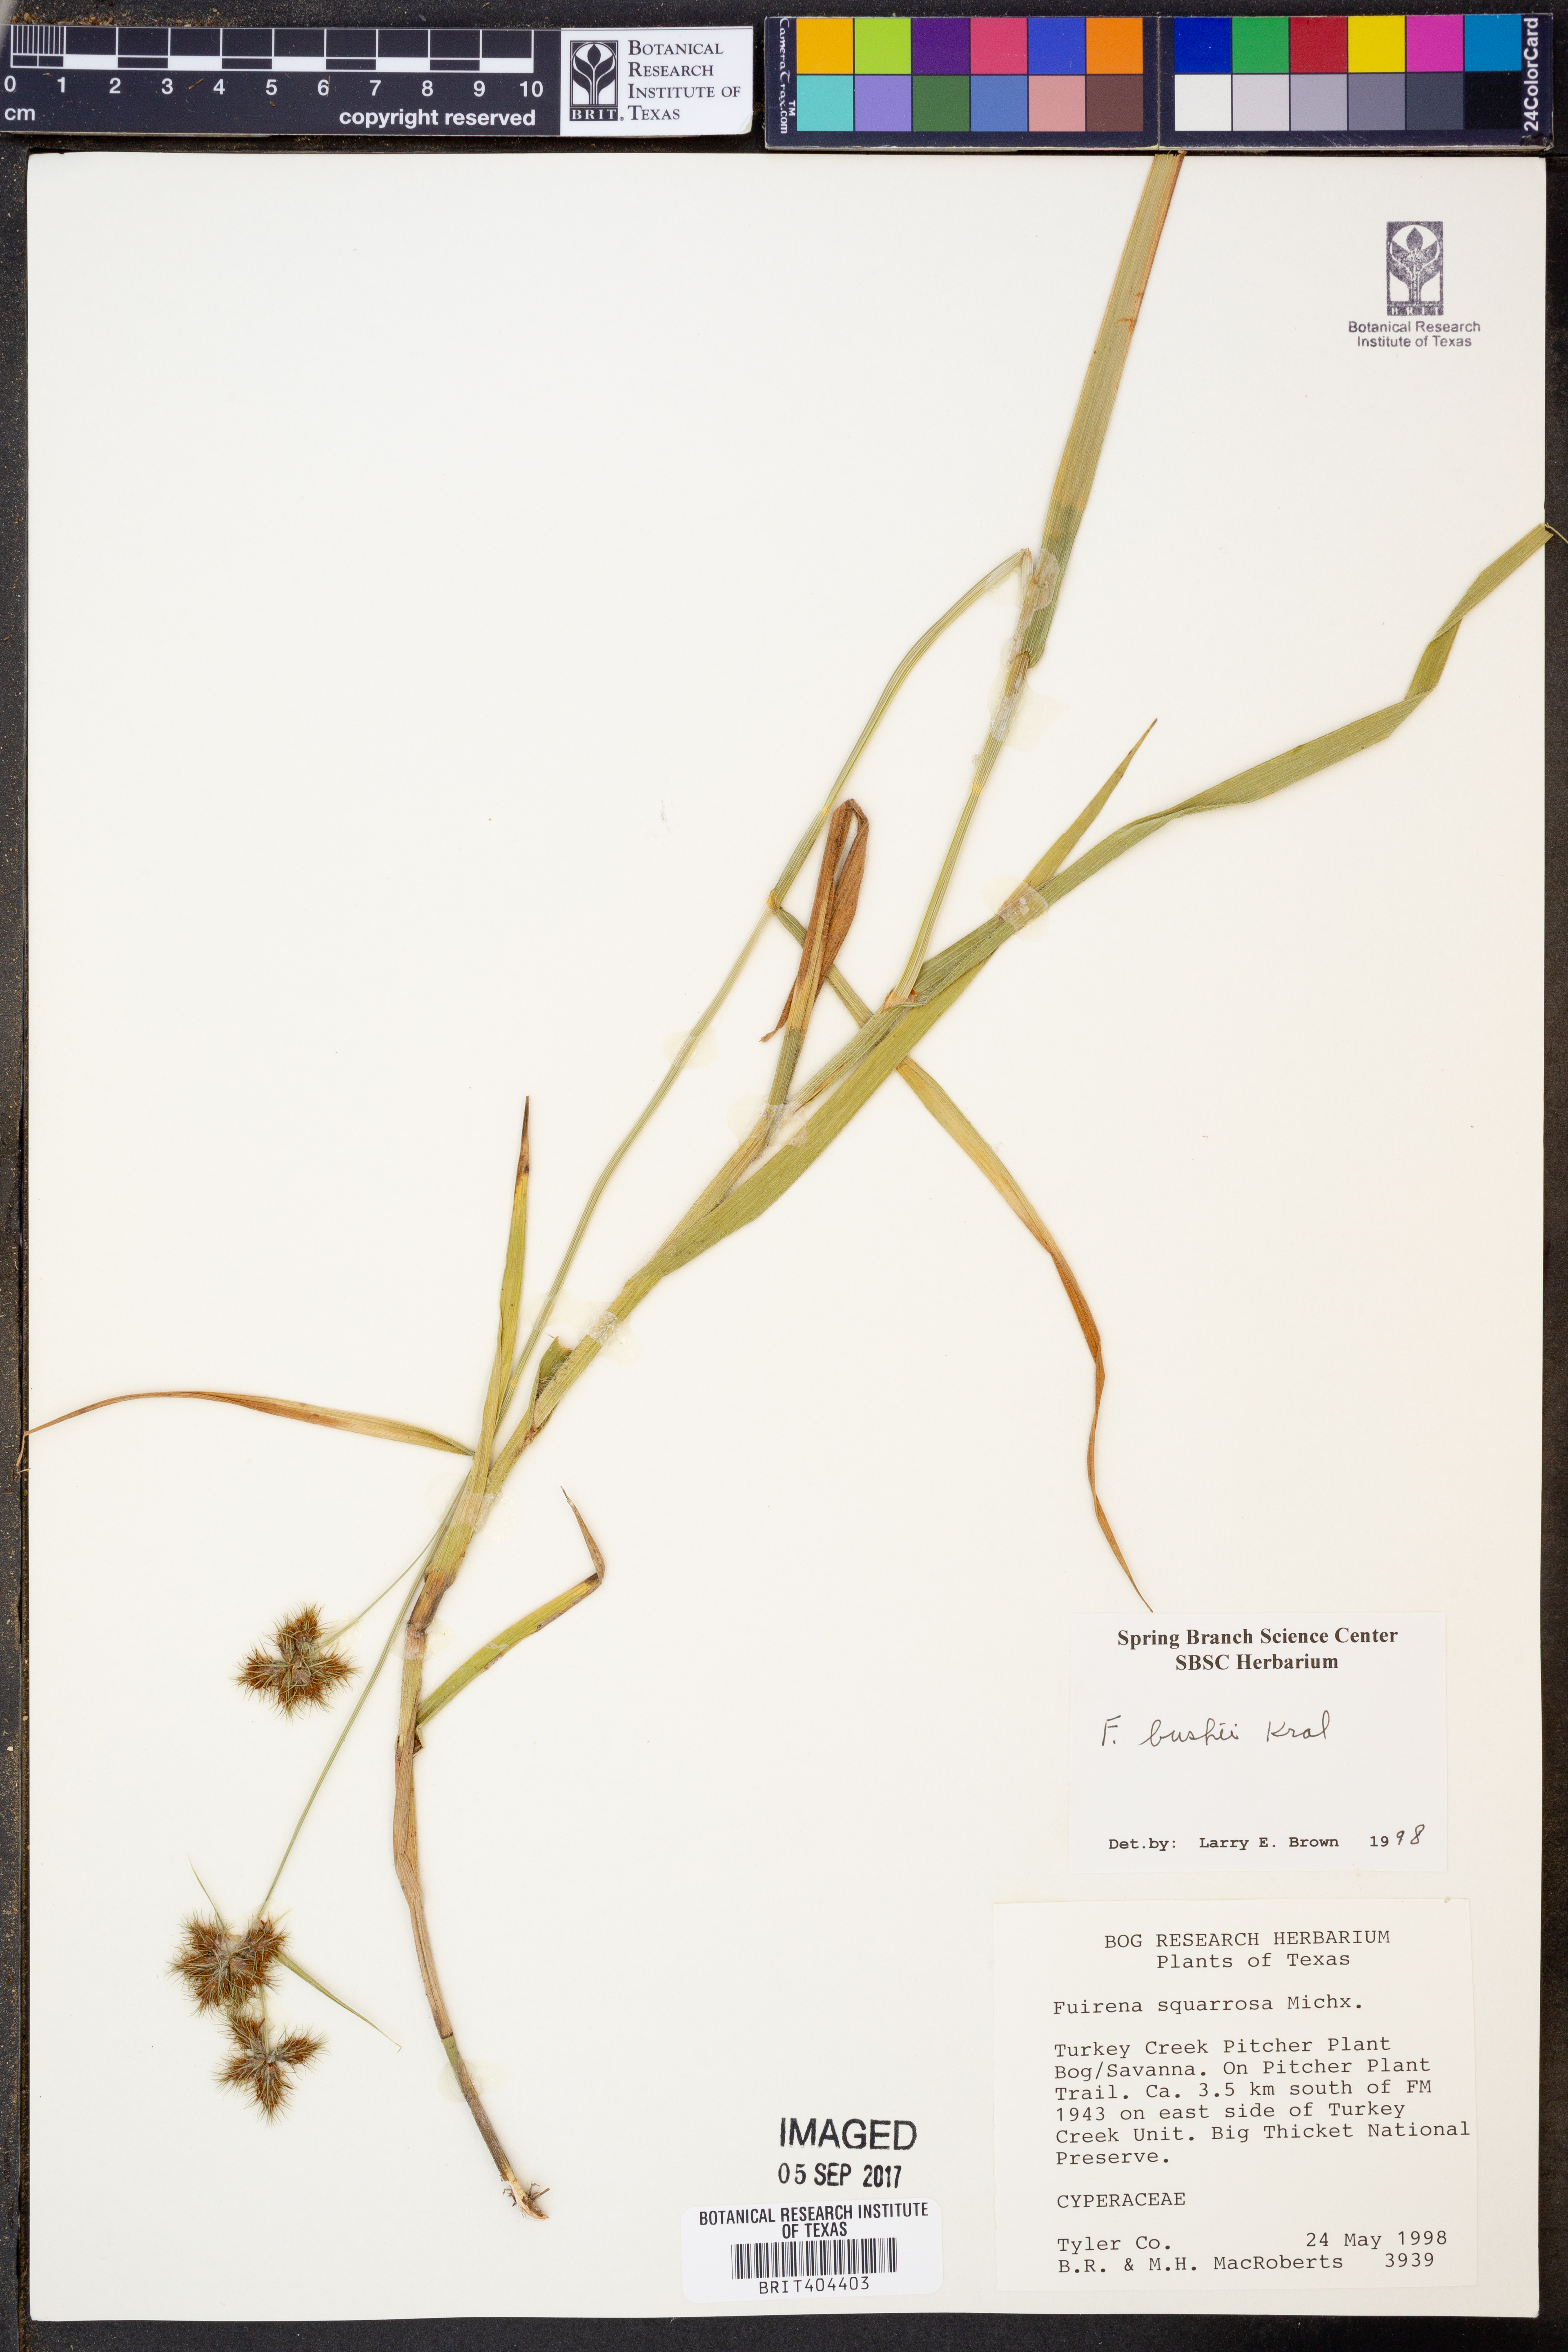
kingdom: Plantae
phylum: Tracheophyta
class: Liliopsida
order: Poales
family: Cyperaceae
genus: Fuirena
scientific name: Fuirena bushii
